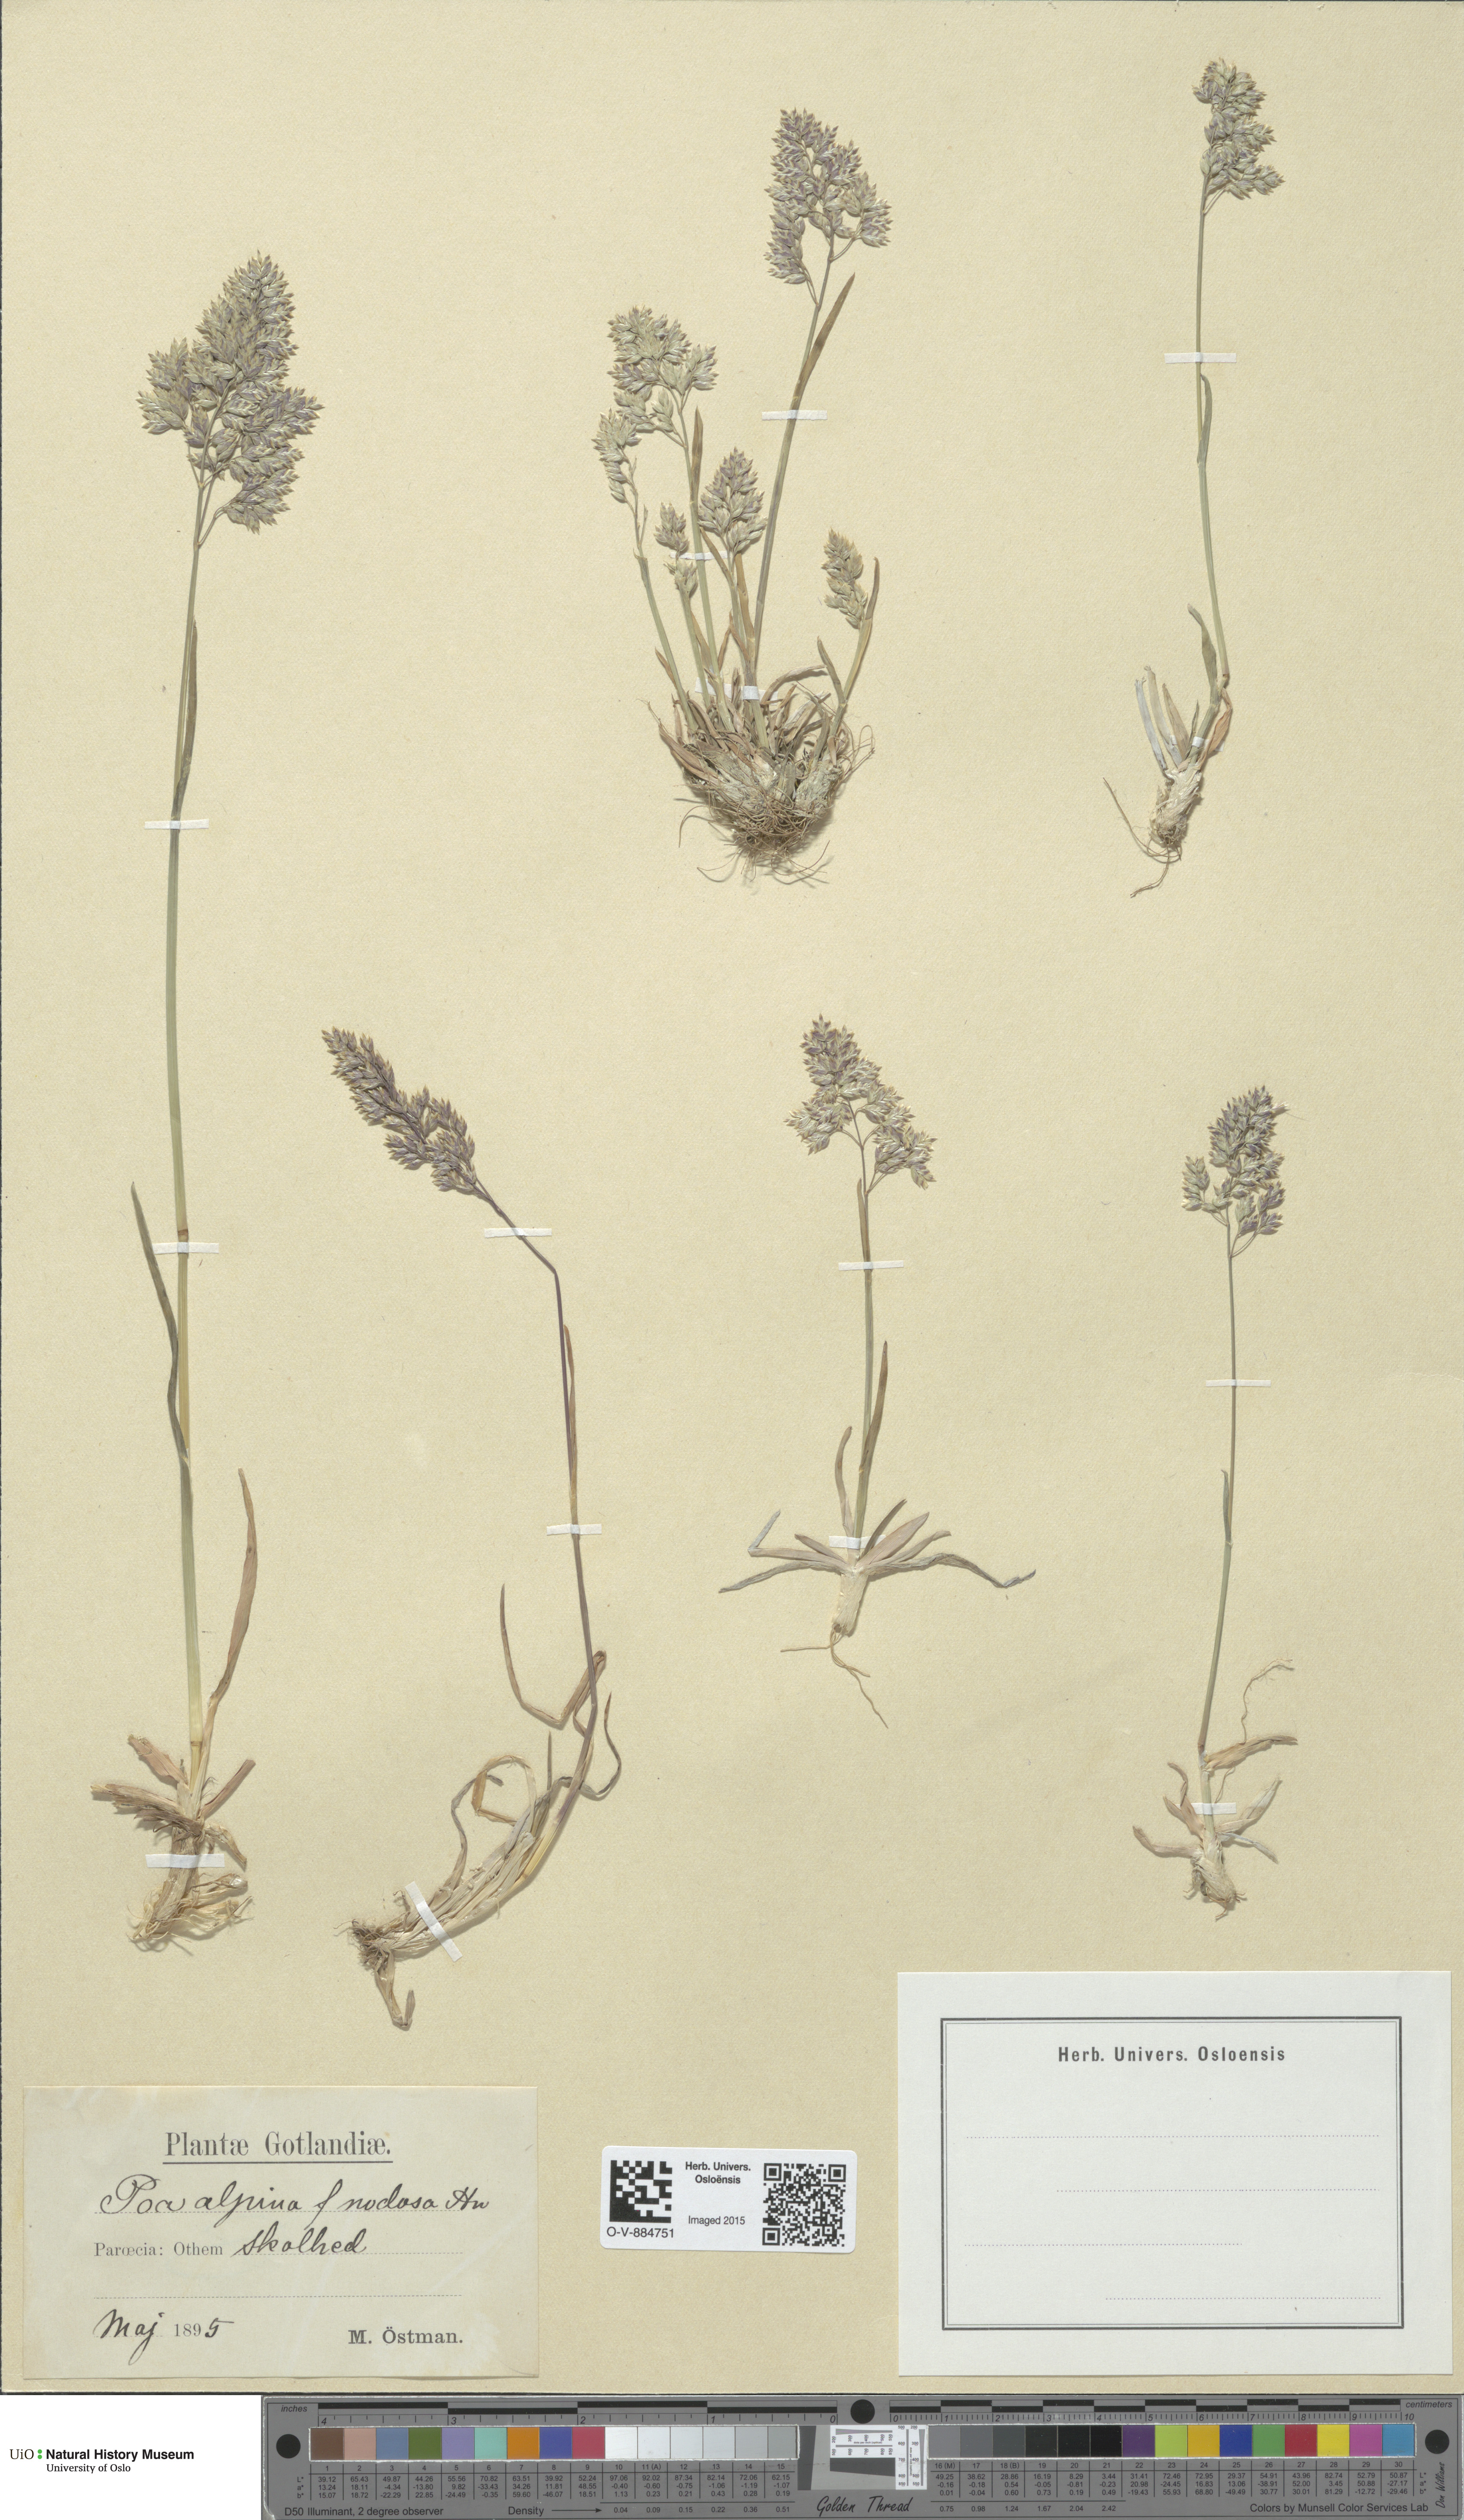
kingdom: Plantae
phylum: Tracheophyta
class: Liliopsida
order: Poales
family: Poaceae
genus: Poa
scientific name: Poa alpina
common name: Alpine bluegrass
